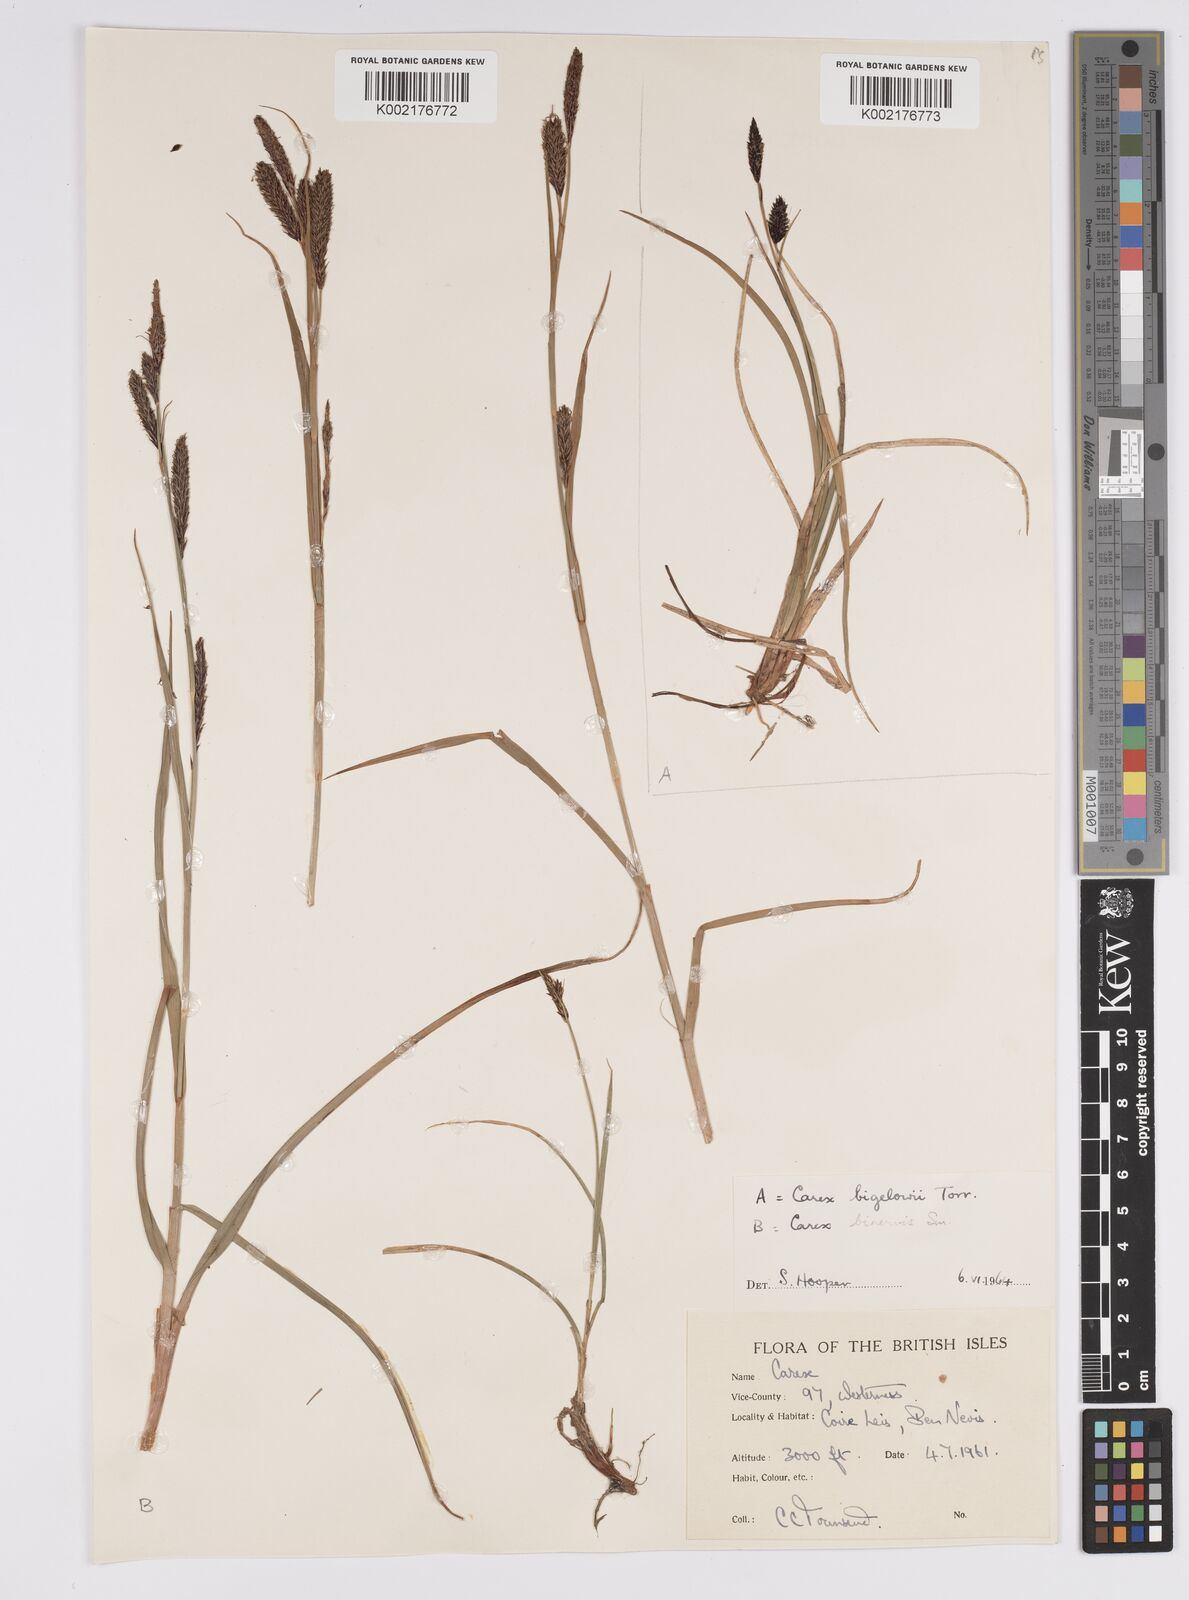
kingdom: Plantae
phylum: Tracheophyta
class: Liliopsida
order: Poales
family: Cyperaceae
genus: Carex
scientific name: Carex binervis
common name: Green-ribbed sedge
